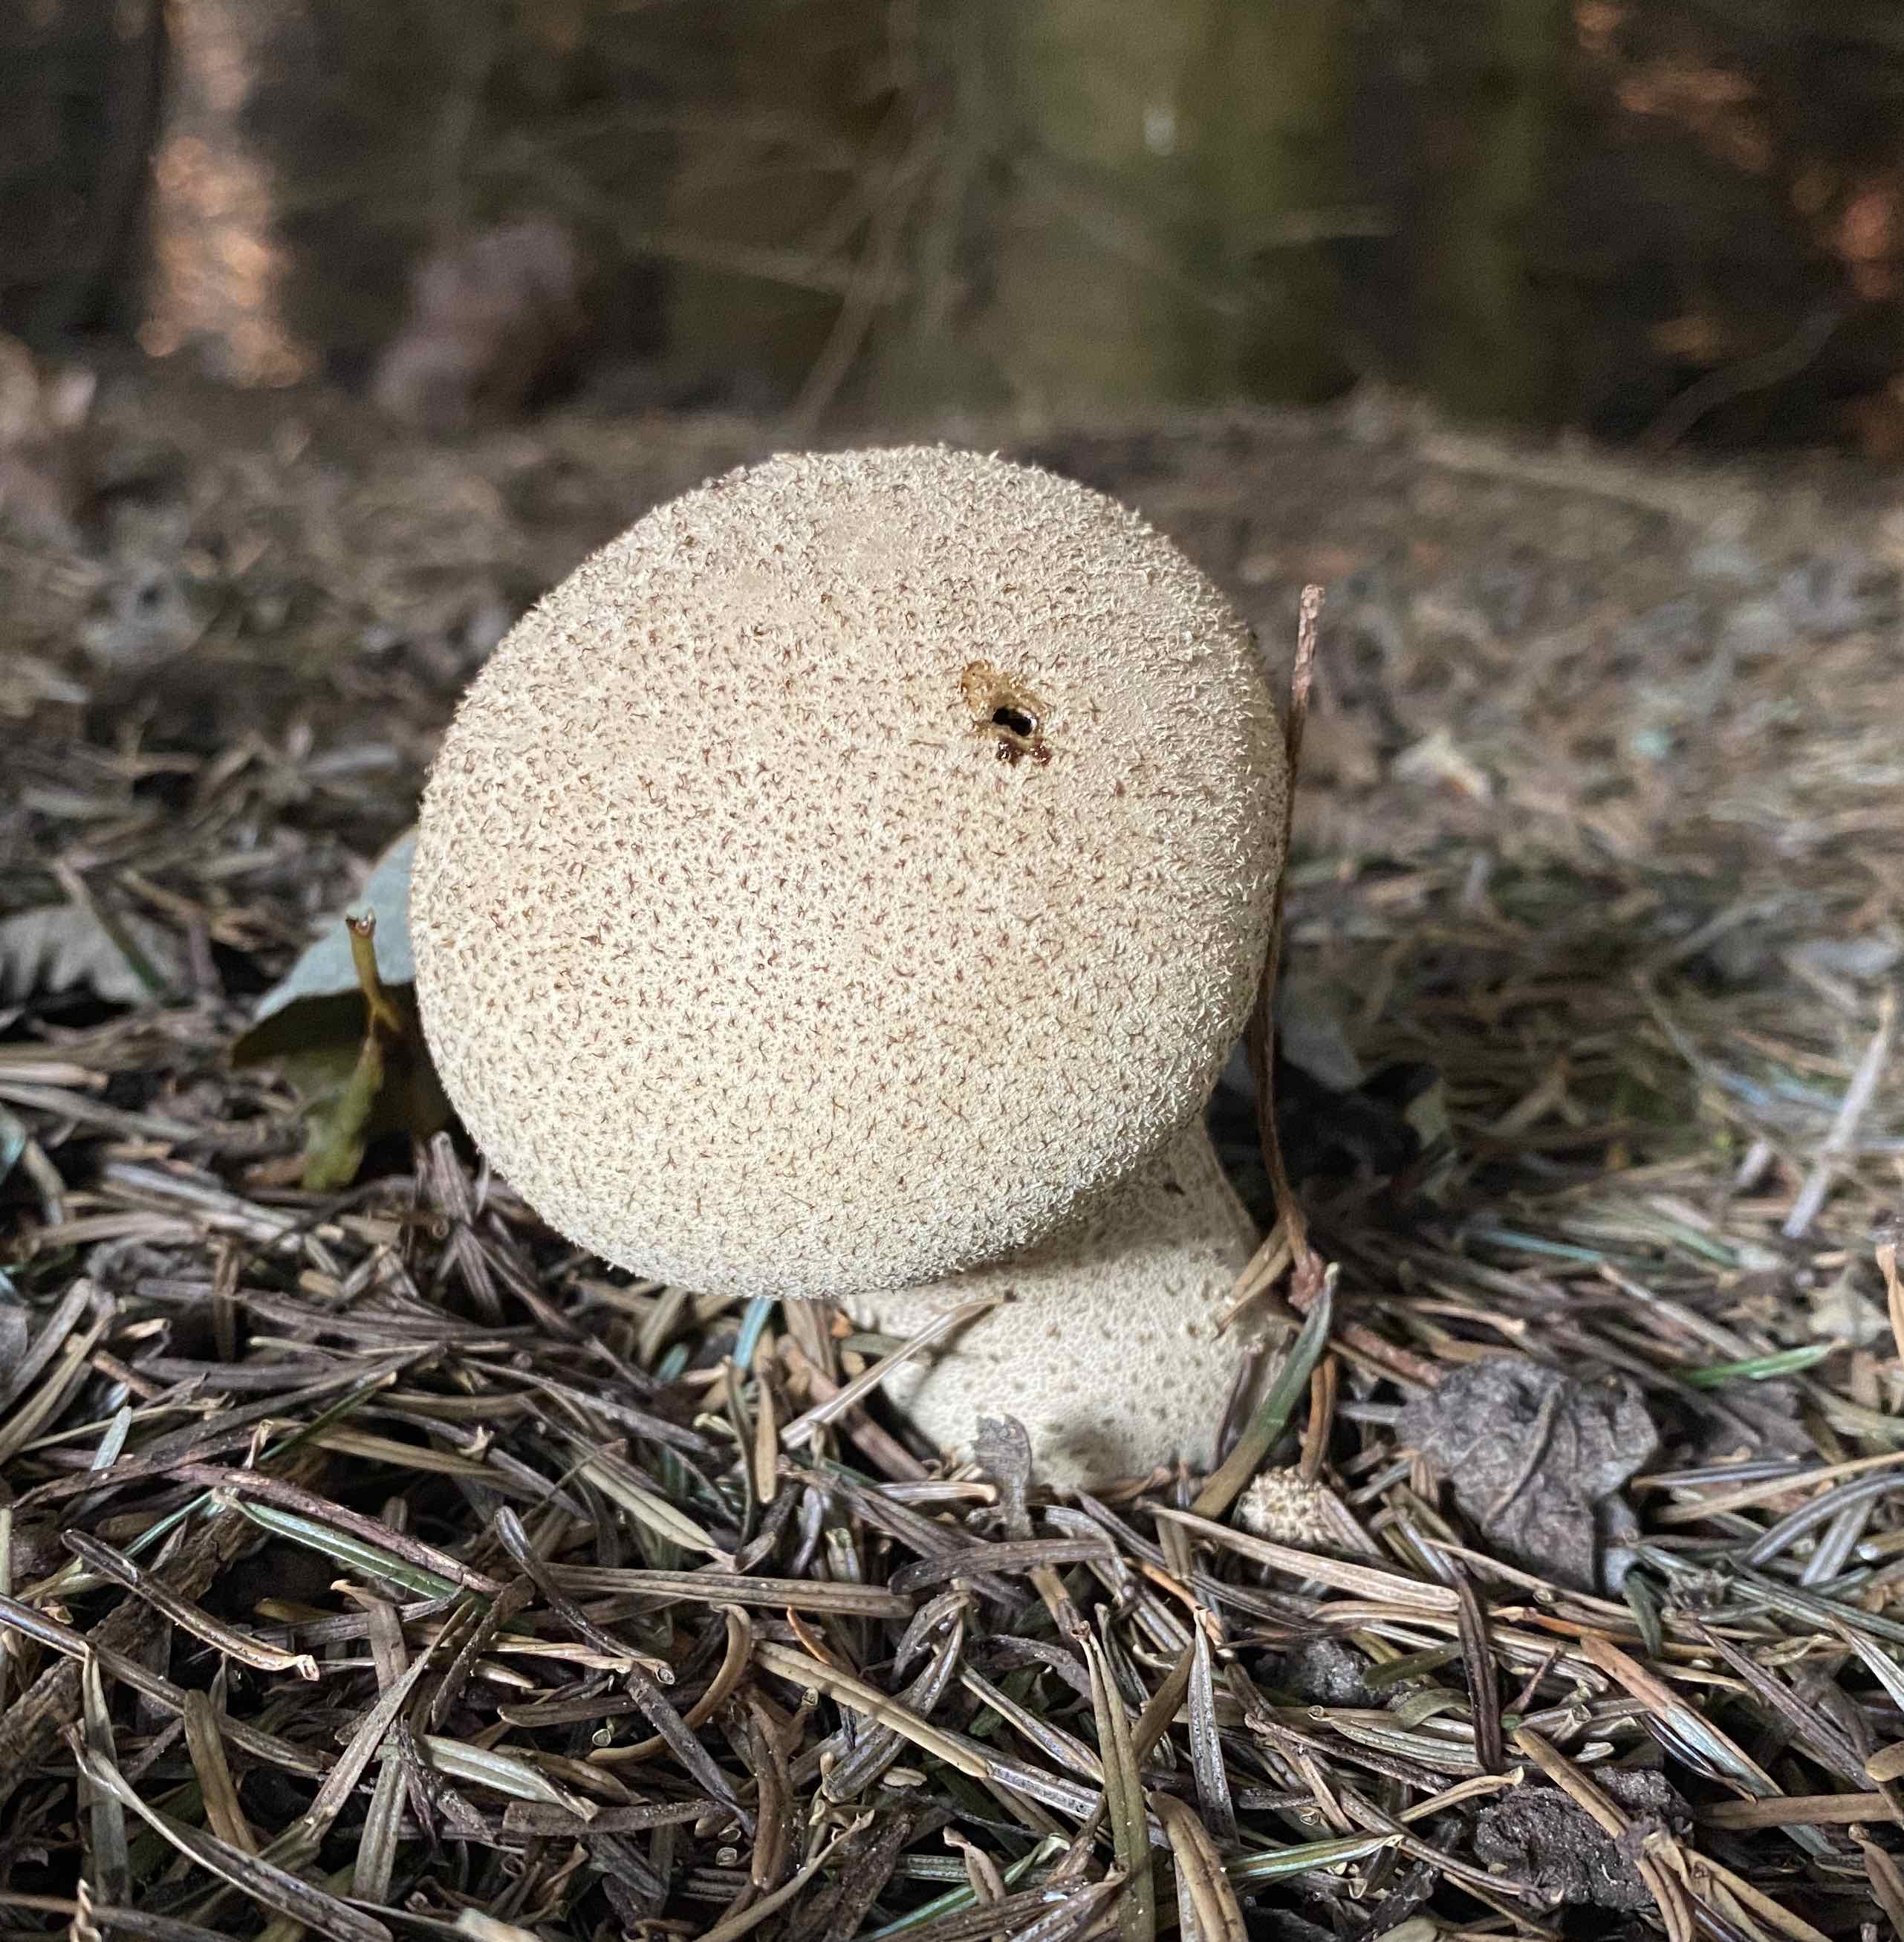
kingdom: Fungi
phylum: Basidiomycota
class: Agaricomycetes
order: Agaricales
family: Lycoperdaceae
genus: Lycoperdon
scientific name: Lycoperdon excipuliforme
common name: højstokket støvbold
